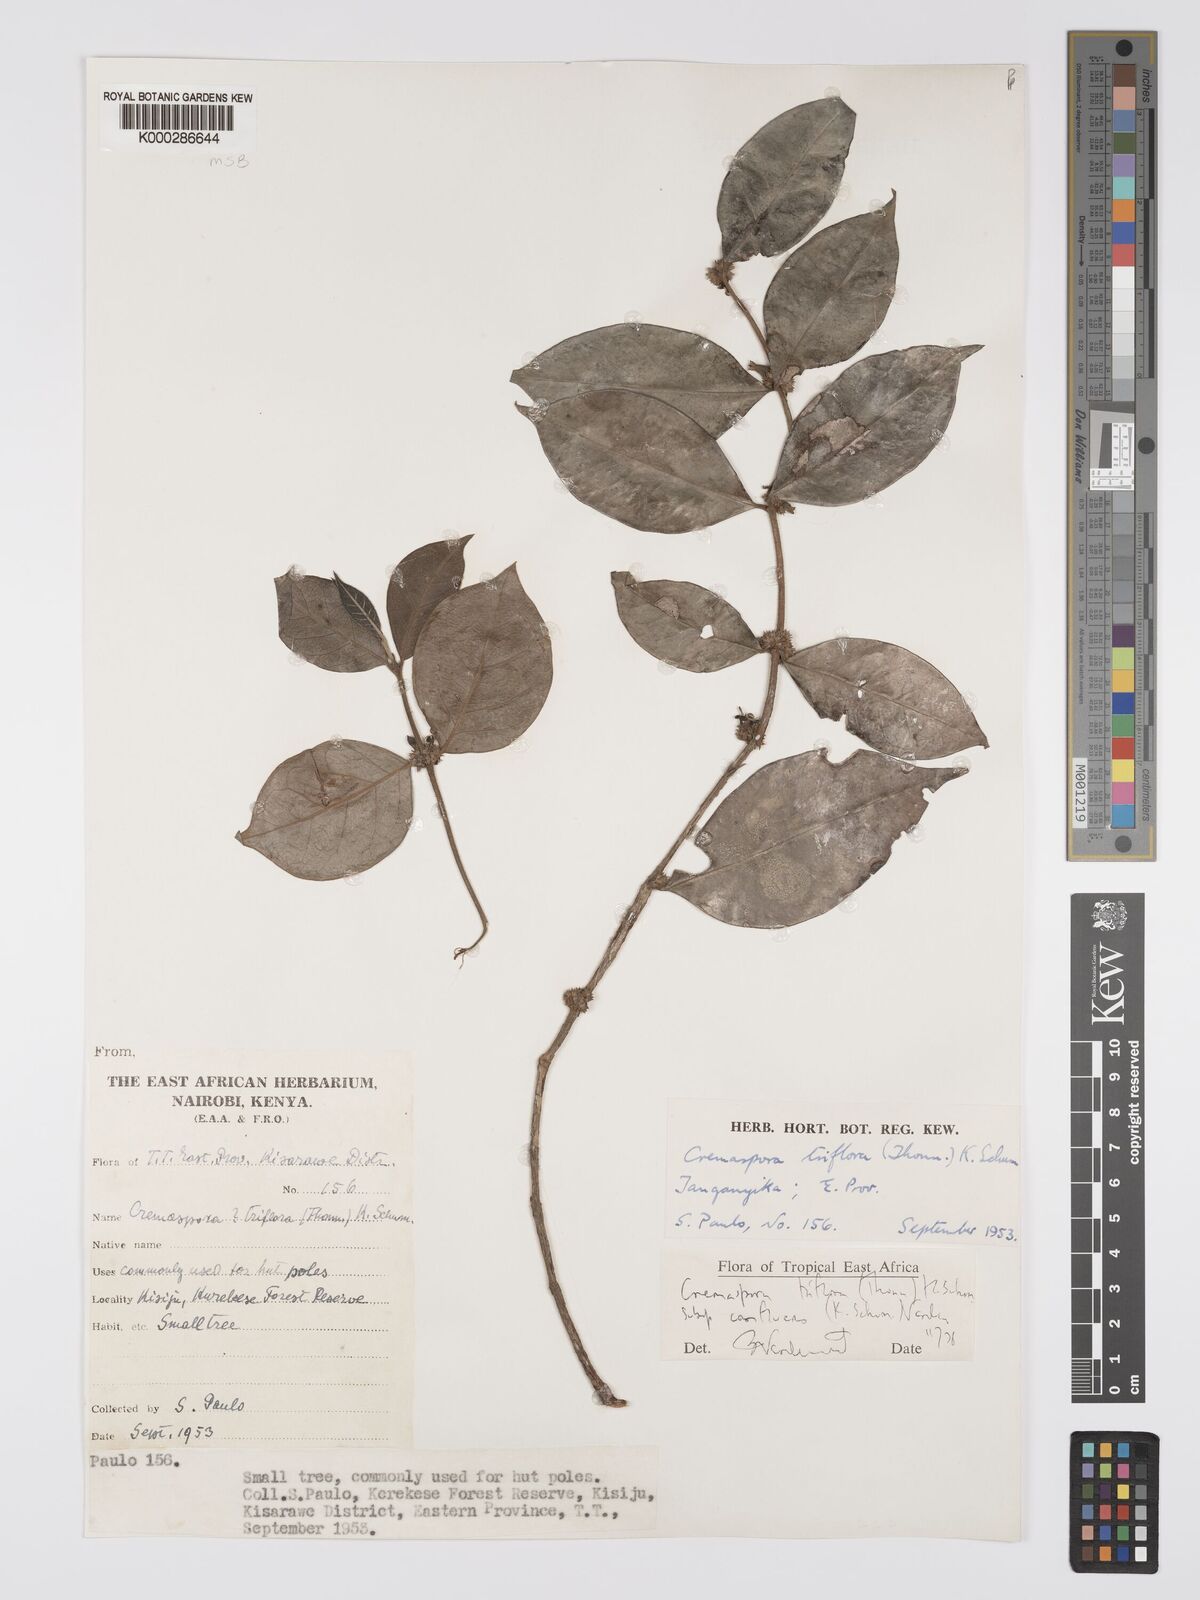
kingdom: Plantae
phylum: Tracheophyta
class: Magnoliopsida
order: Gentianales
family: Rubiaceae
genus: Cremaspora
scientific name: Cremaspora triflora
